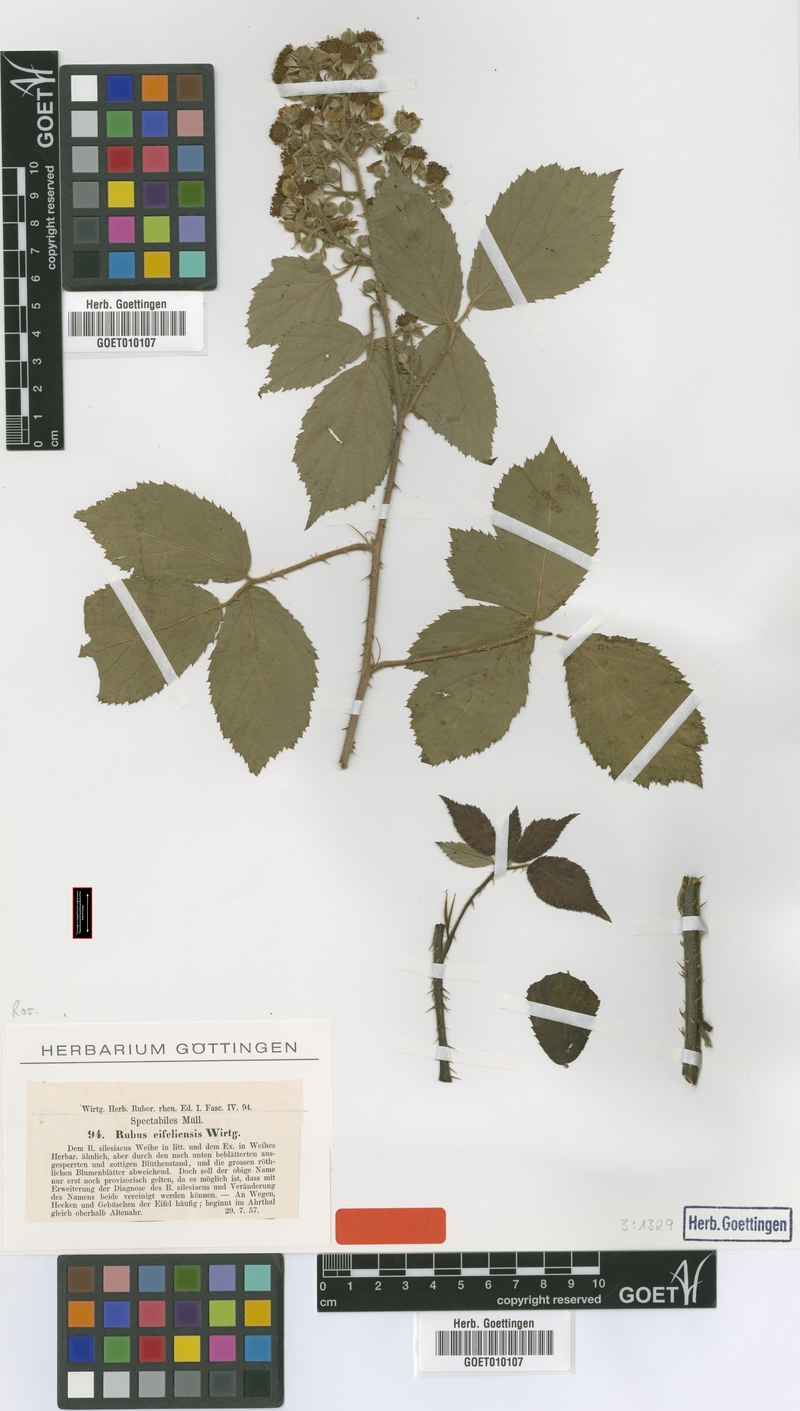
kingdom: Plantae
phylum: Tracheophyta
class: Magnoliopsida
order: Rosales
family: Rosaceae
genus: Rubus
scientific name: Rubus eifeliensis
